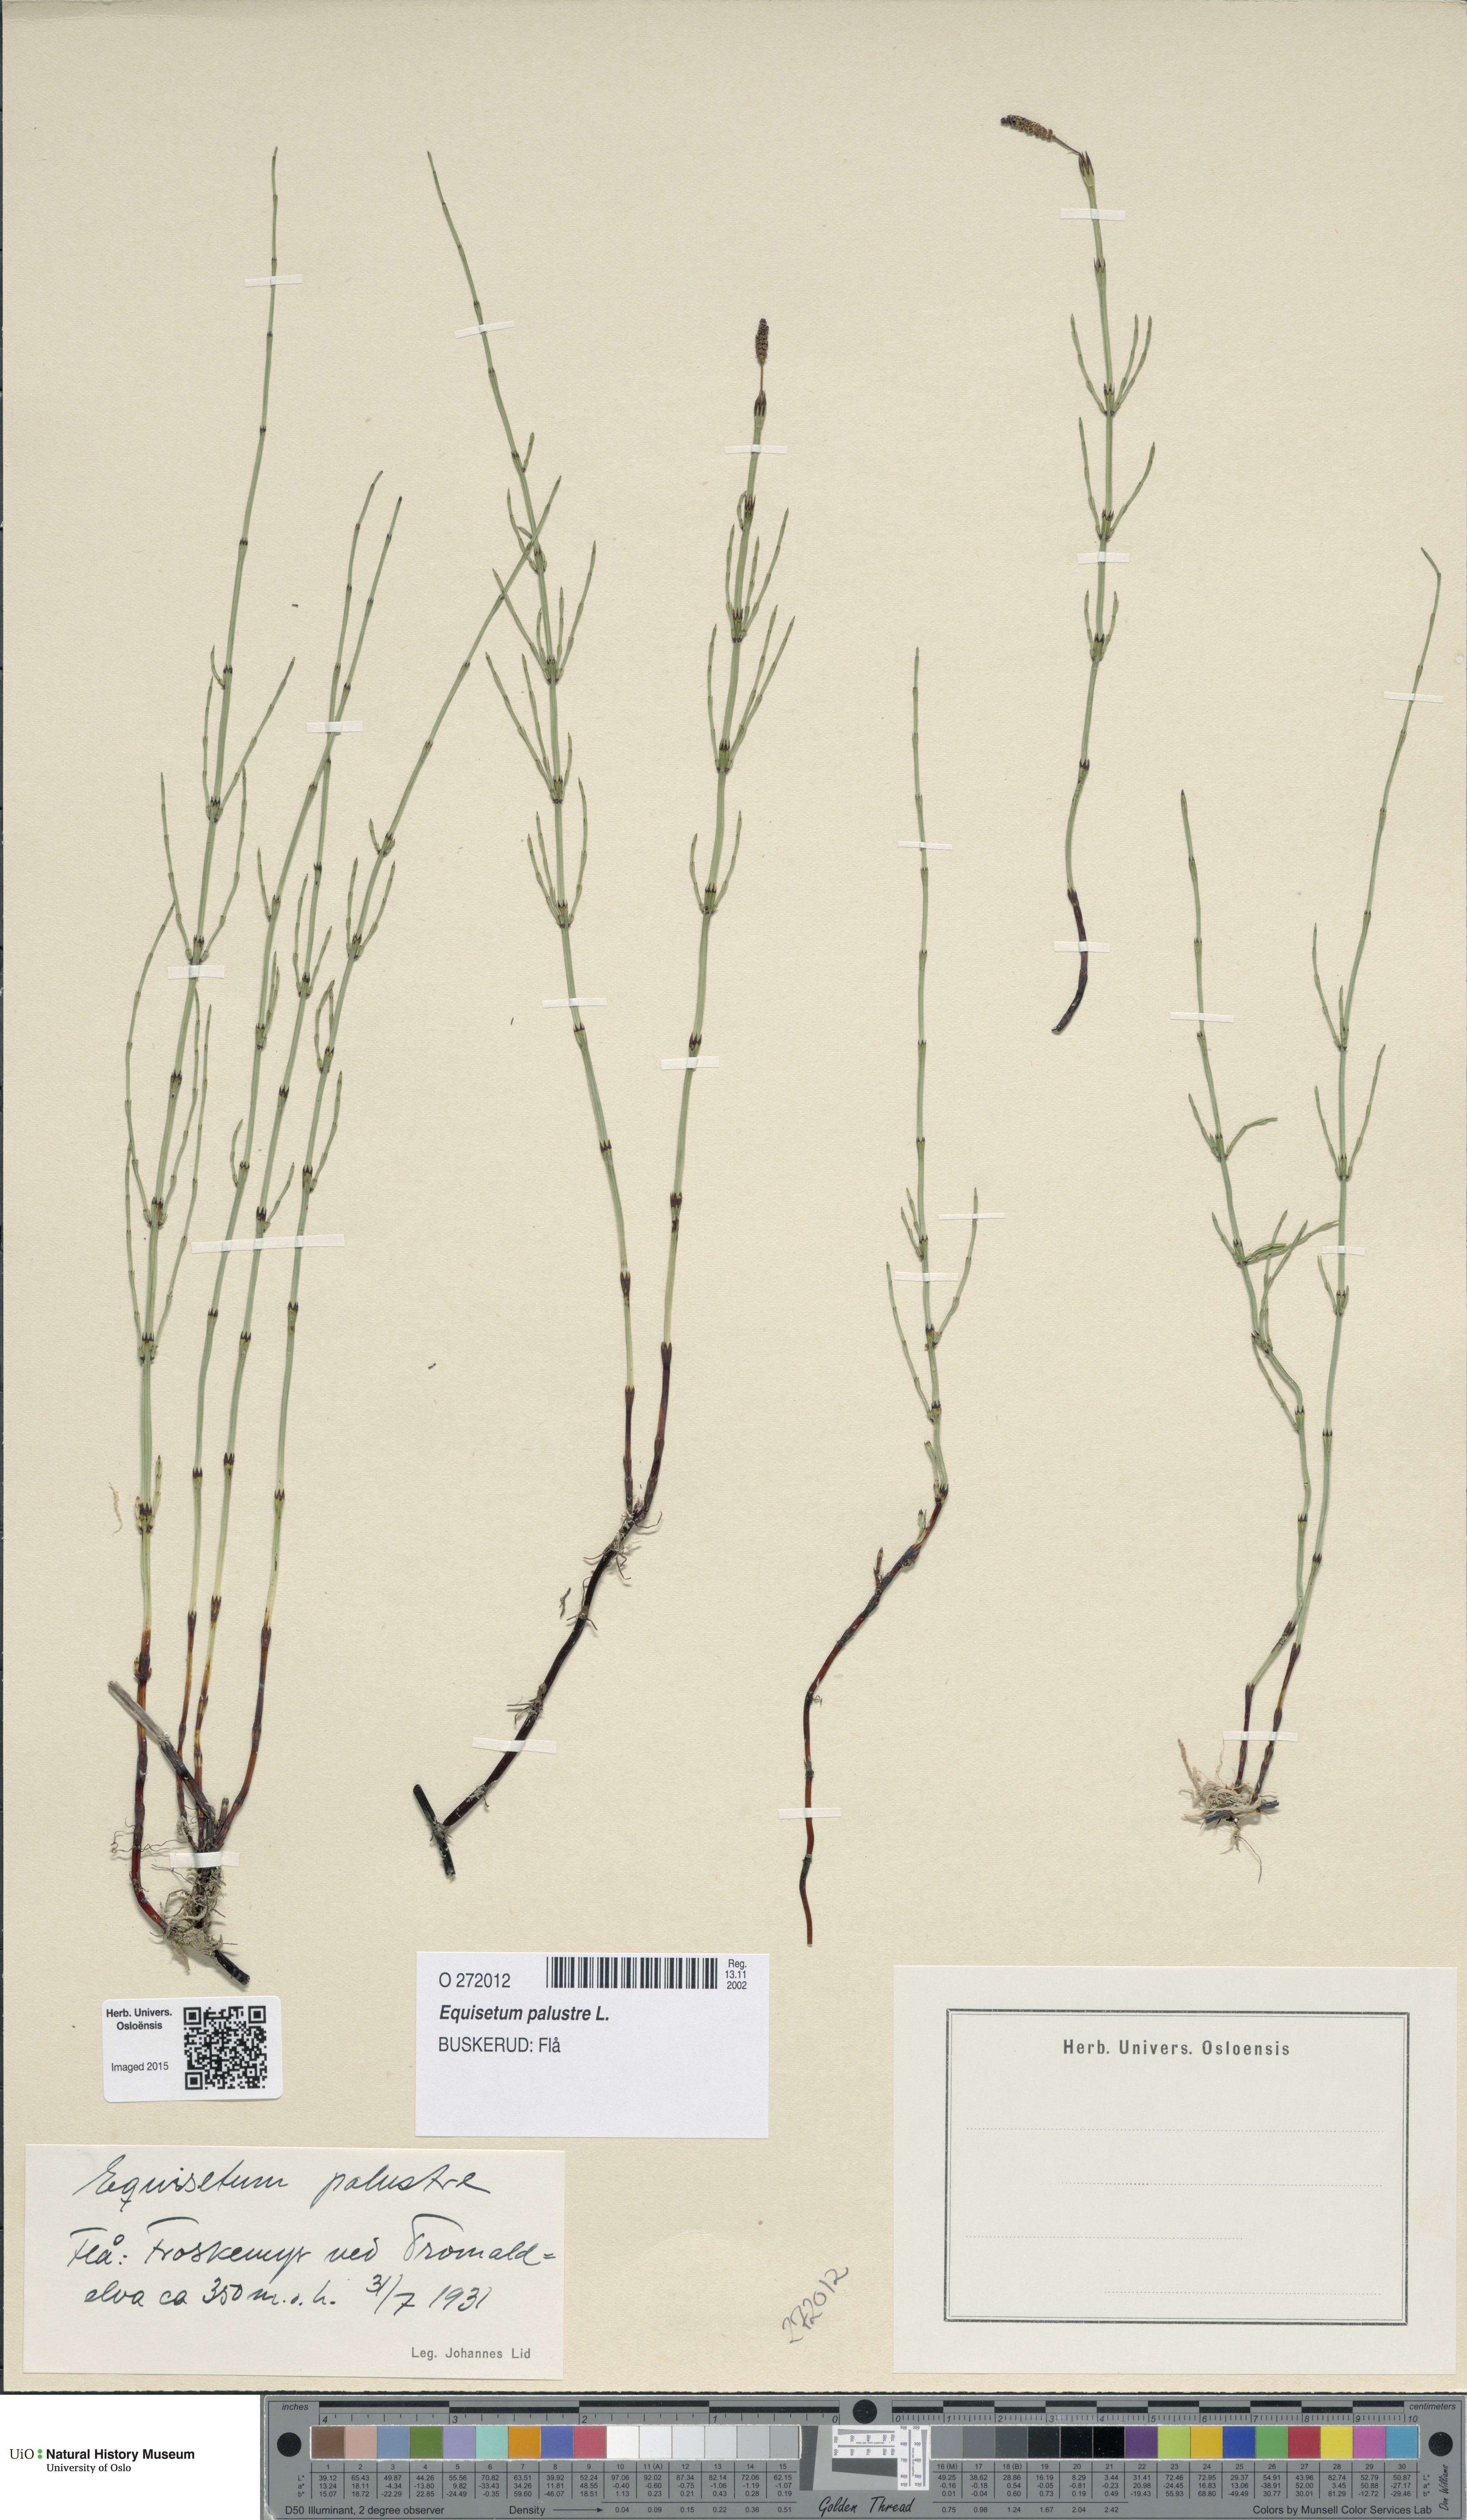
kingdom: Plantae
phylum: Tracheophyta
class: Polypodiopsida
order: Equisetales
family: Equisetaceae
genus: Equisetum
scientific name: Equisetum palustre
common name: Marsh horsetail
